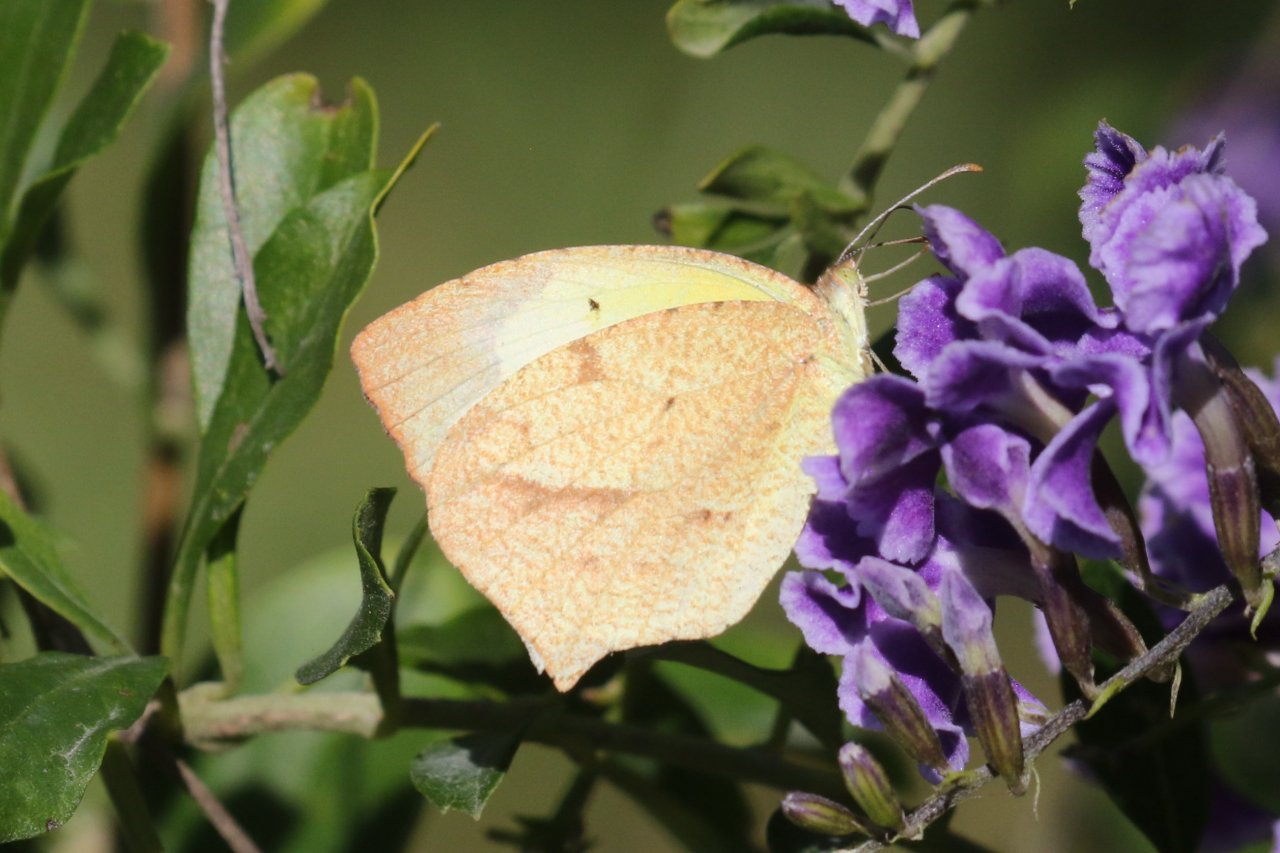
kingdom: Animalia
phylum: Arthropoda
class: Insecta
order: Lepidoptera
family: Pieridae
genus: Eurema
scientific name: Eurema mexicana
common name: Mexican Yellow
